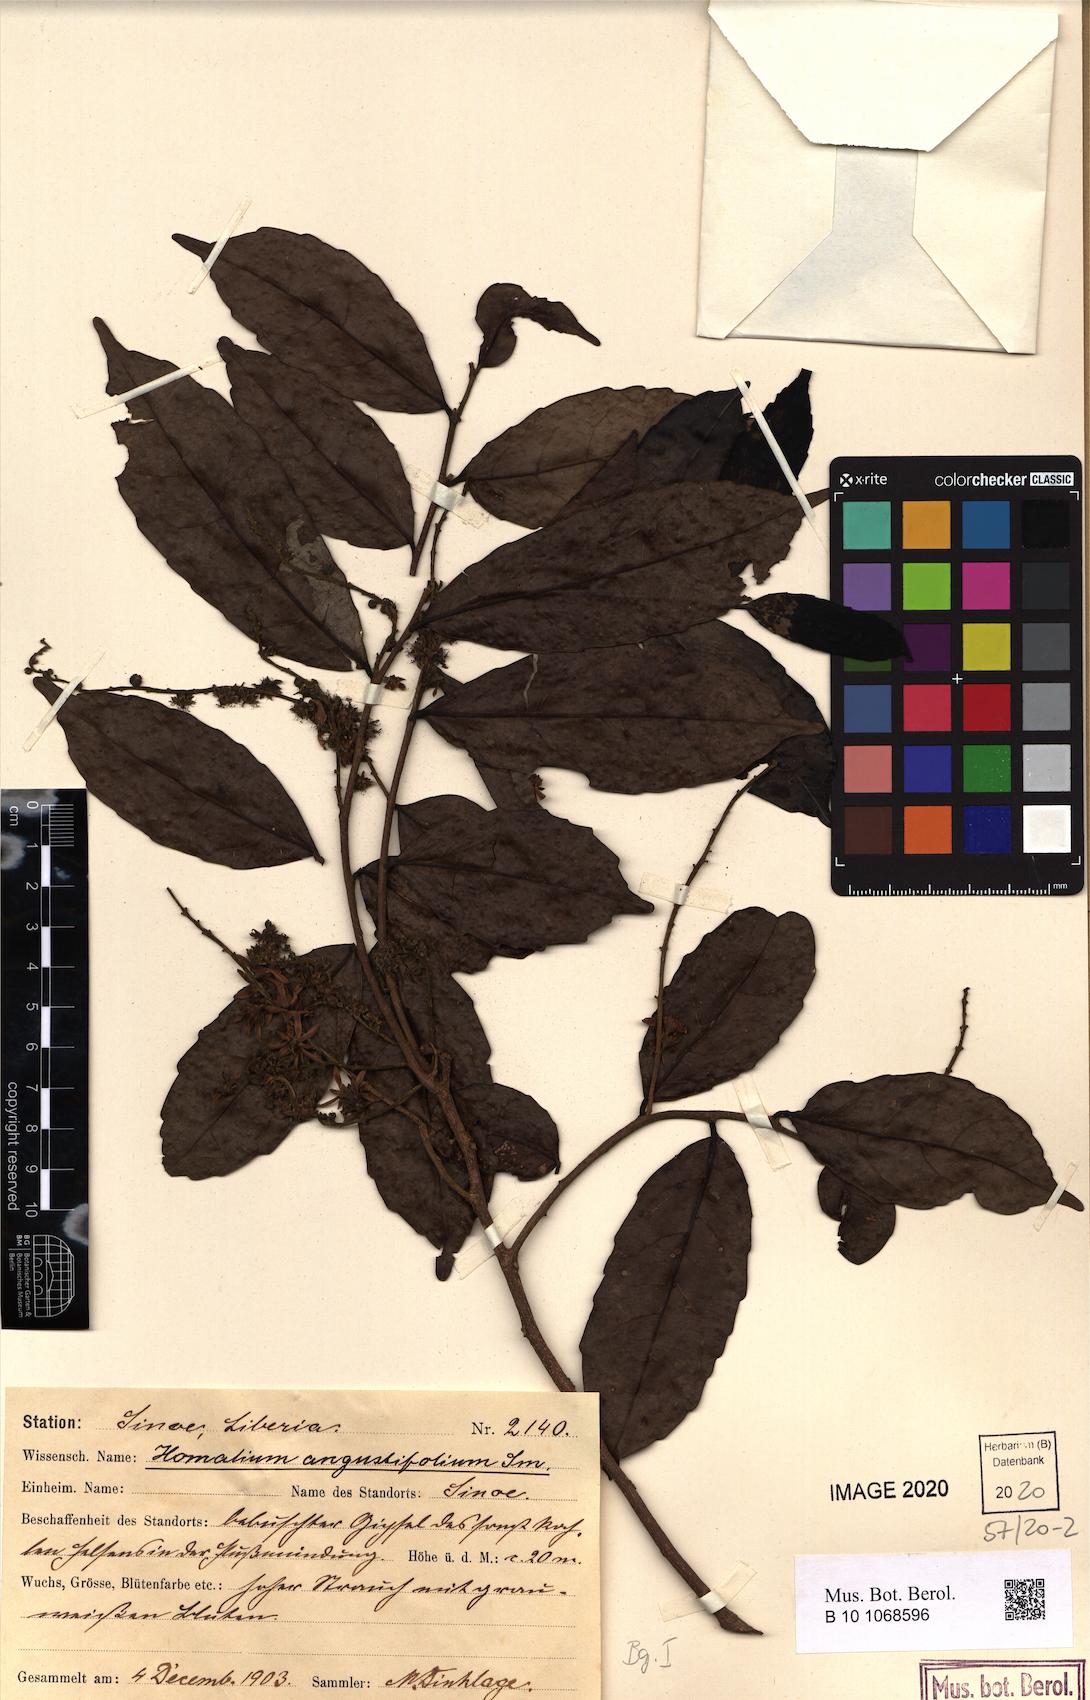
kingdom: Plantae
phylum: Tracheophyta
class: Magnoliopsida
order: Malpighiales
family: Salicaceae
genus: Homalium
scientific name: Homalium angustifolium
